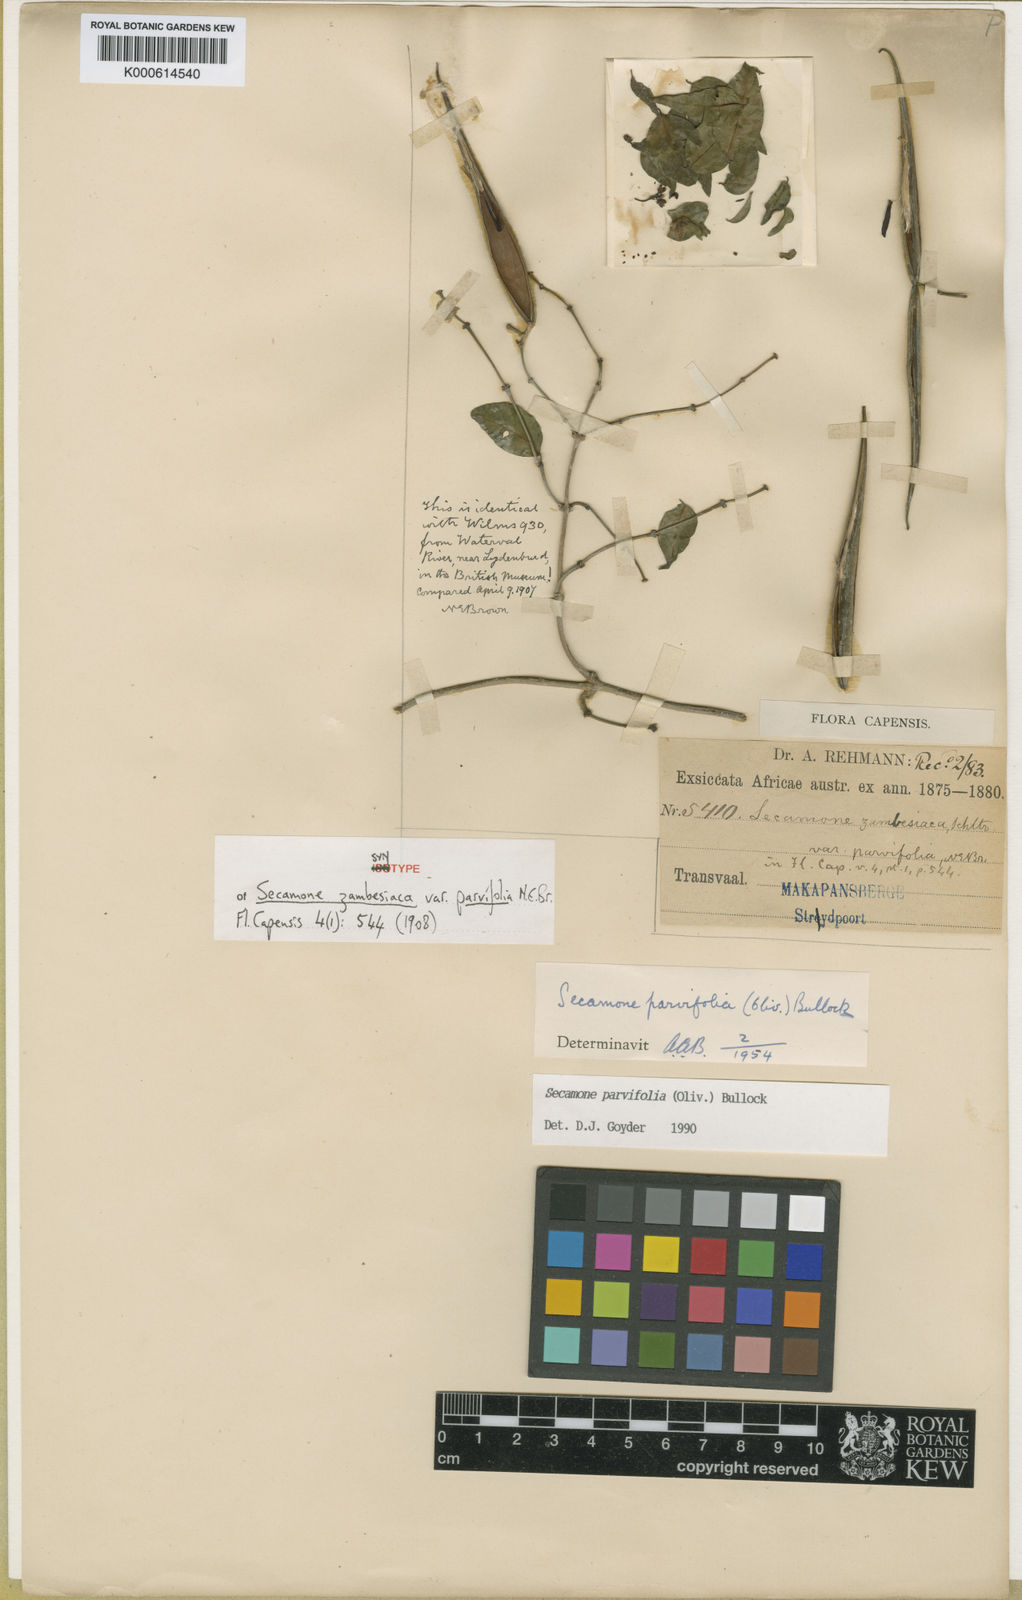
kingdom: Plantae
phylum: Tracheophyta
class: Magnoliopsida
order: Gentianales
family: Apocynaceae
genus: Secamone
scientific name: Secamone schweinfurthii
